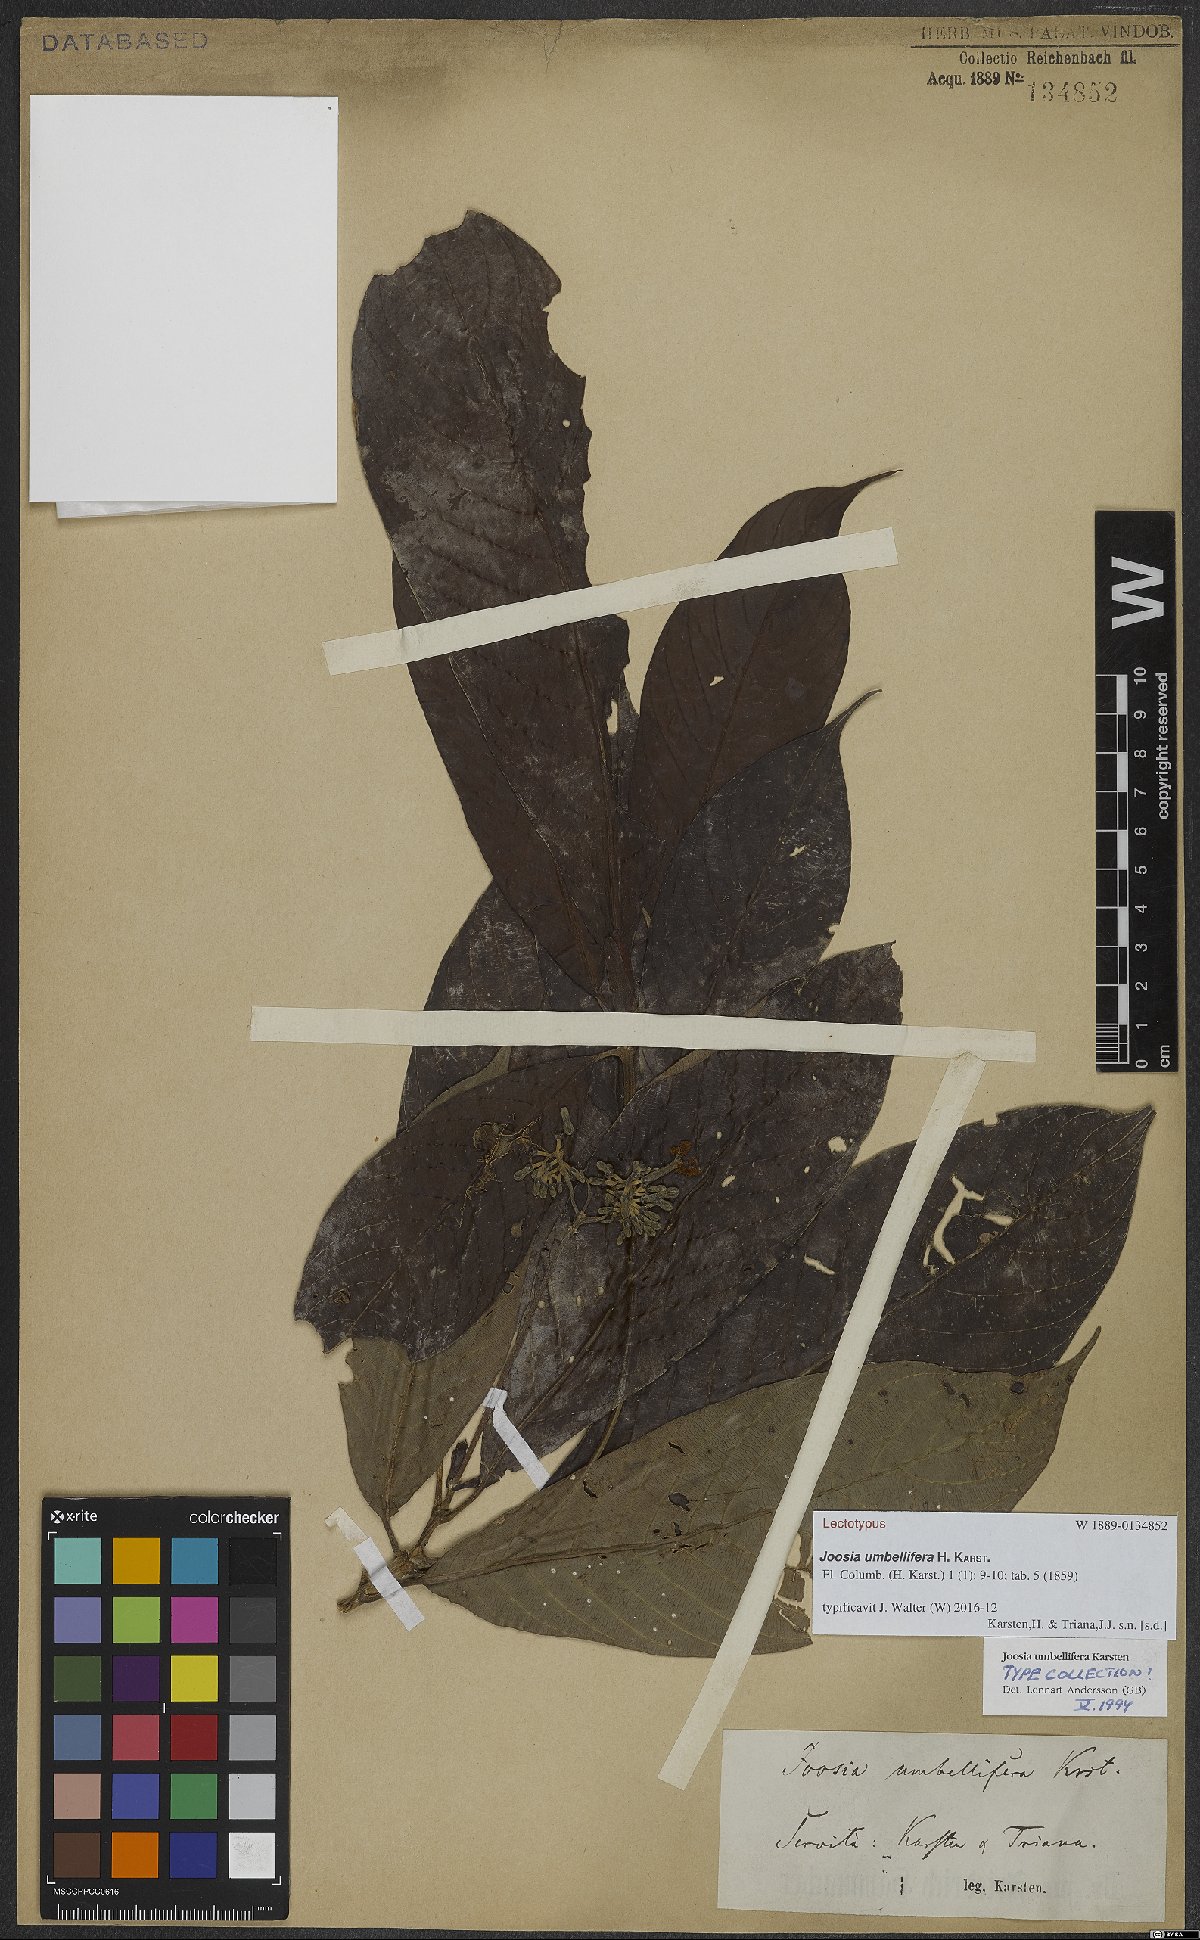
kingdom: Plantae
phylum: Tracheophyta
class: Magnoliopsida
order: Gentianales
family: Rubiaceae
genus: Joosia
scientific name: Joosia umbellifera
